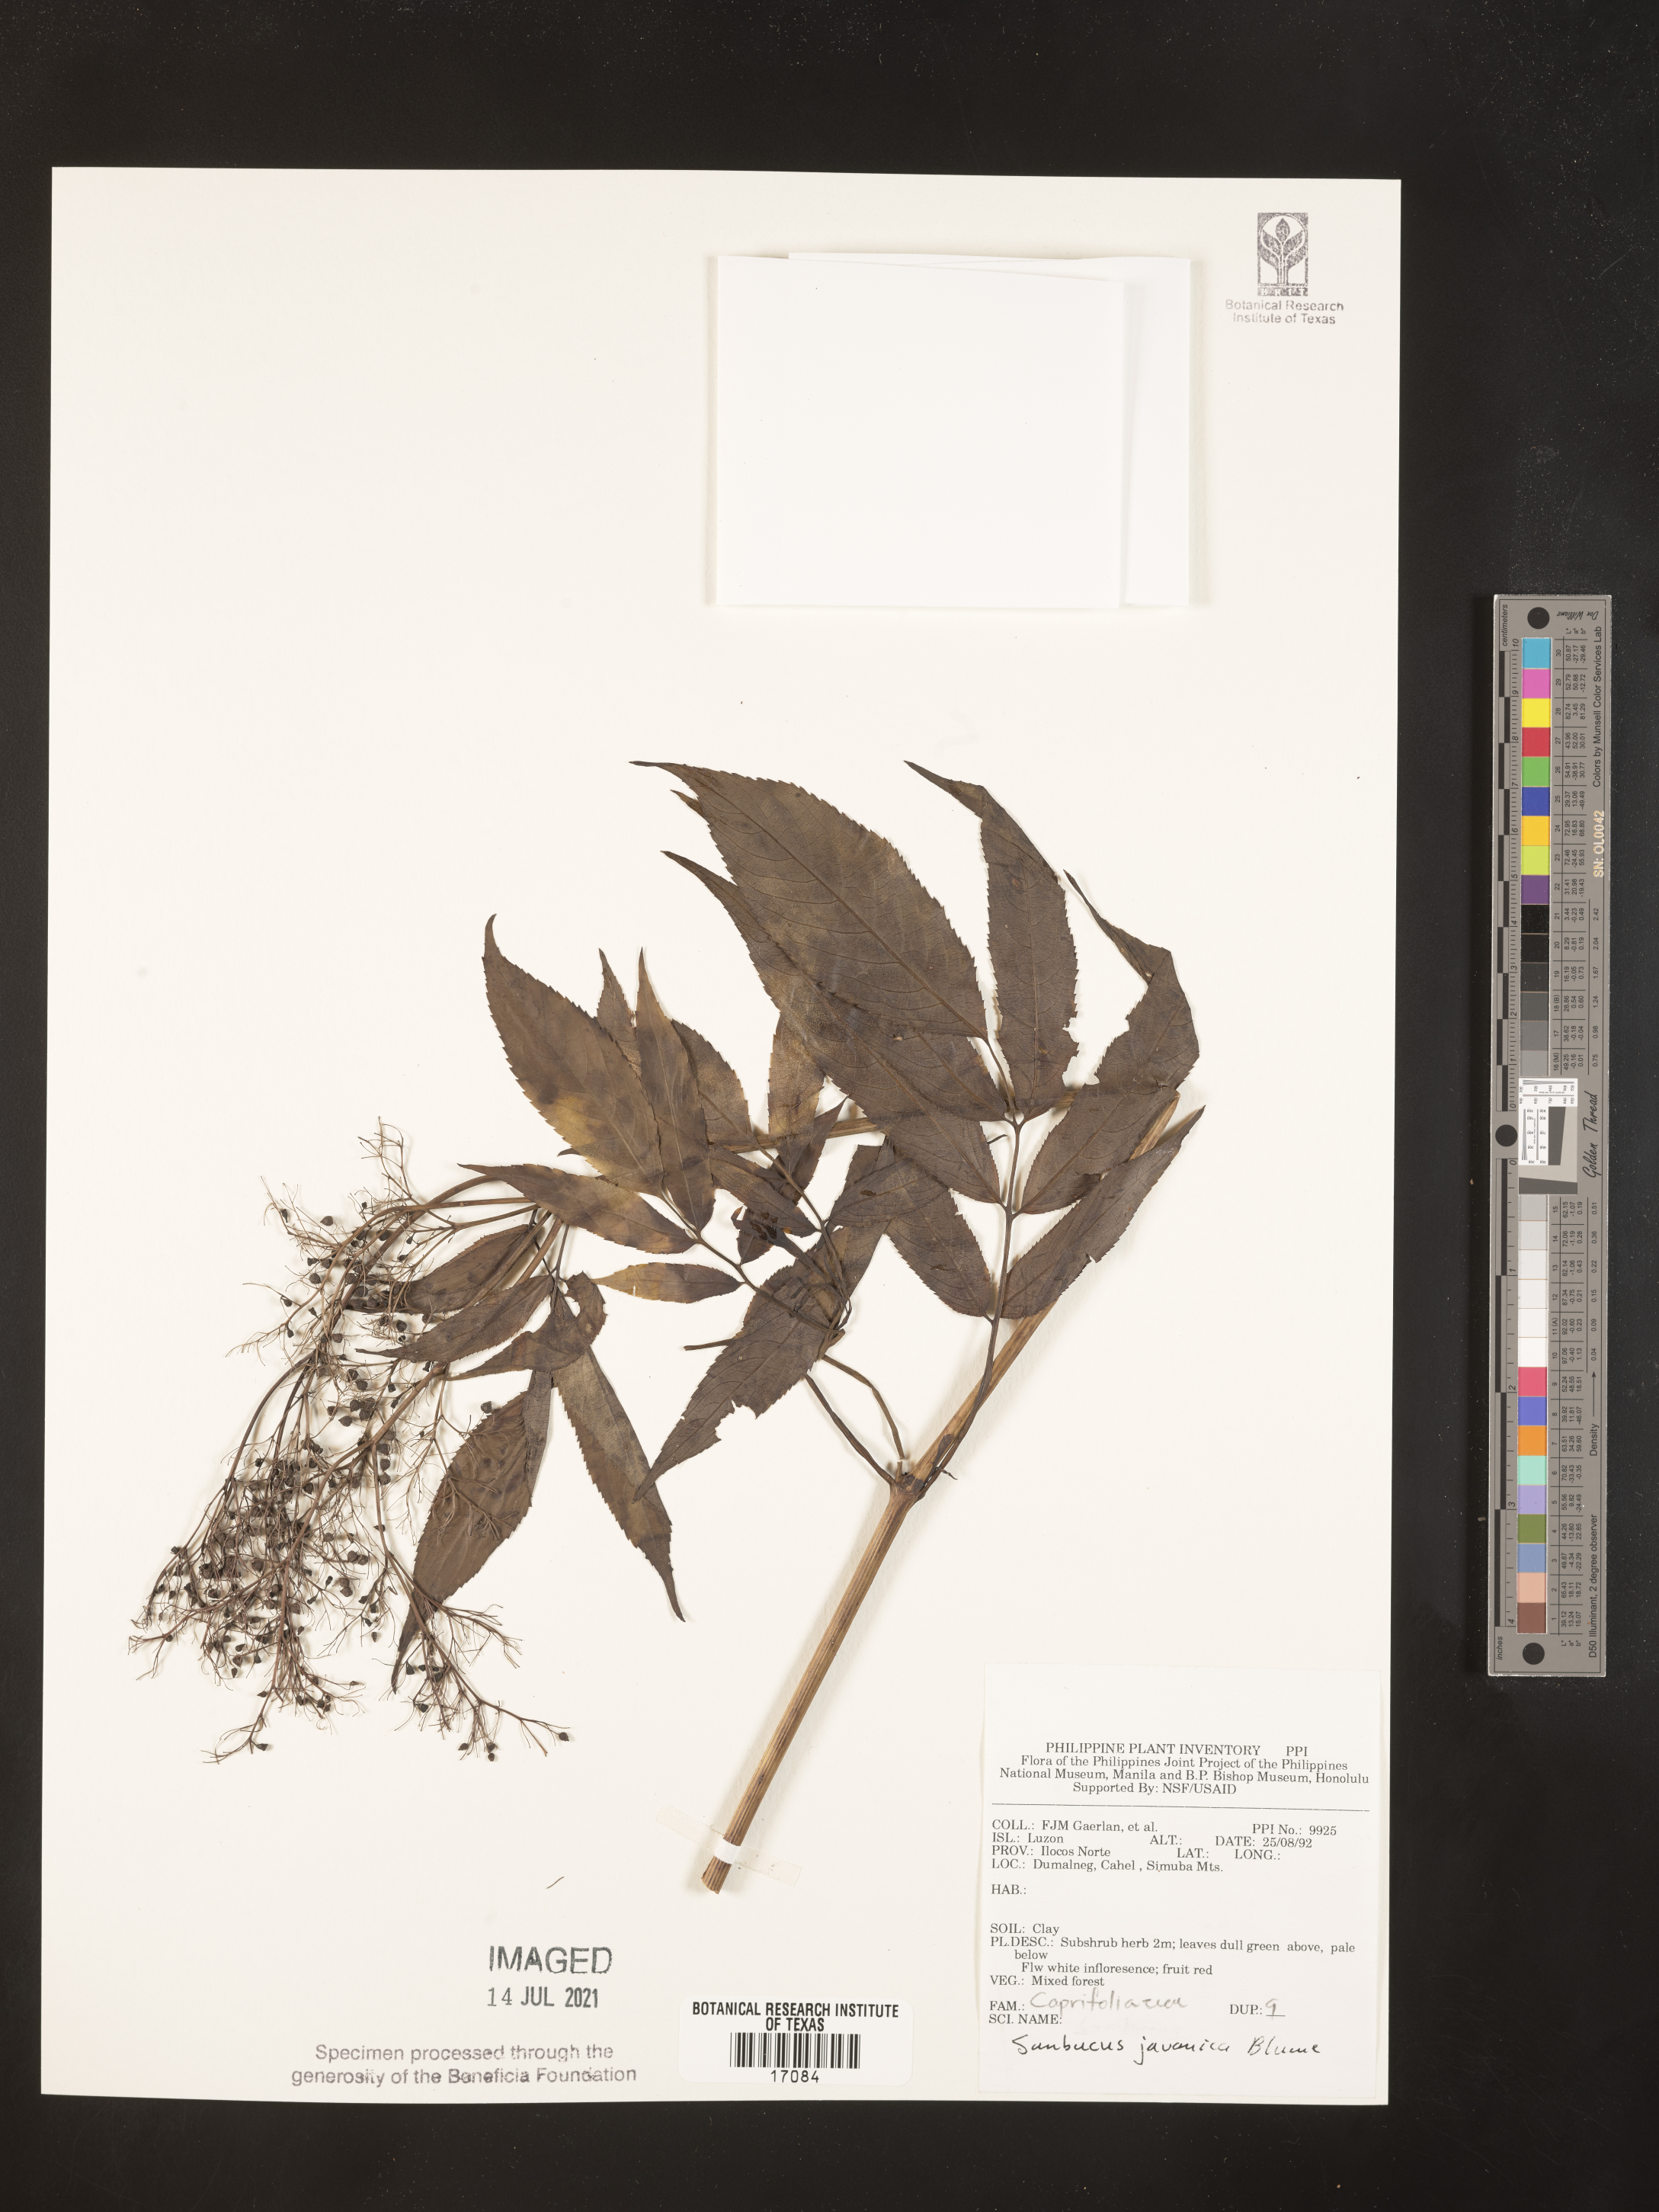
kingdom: Plantae
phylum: Tracheophyta
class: Magnoliopsida
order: Dipsacales
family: Viburnaceae
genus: Sambucus
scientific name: Sambucus javanica
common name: Chinese elder
